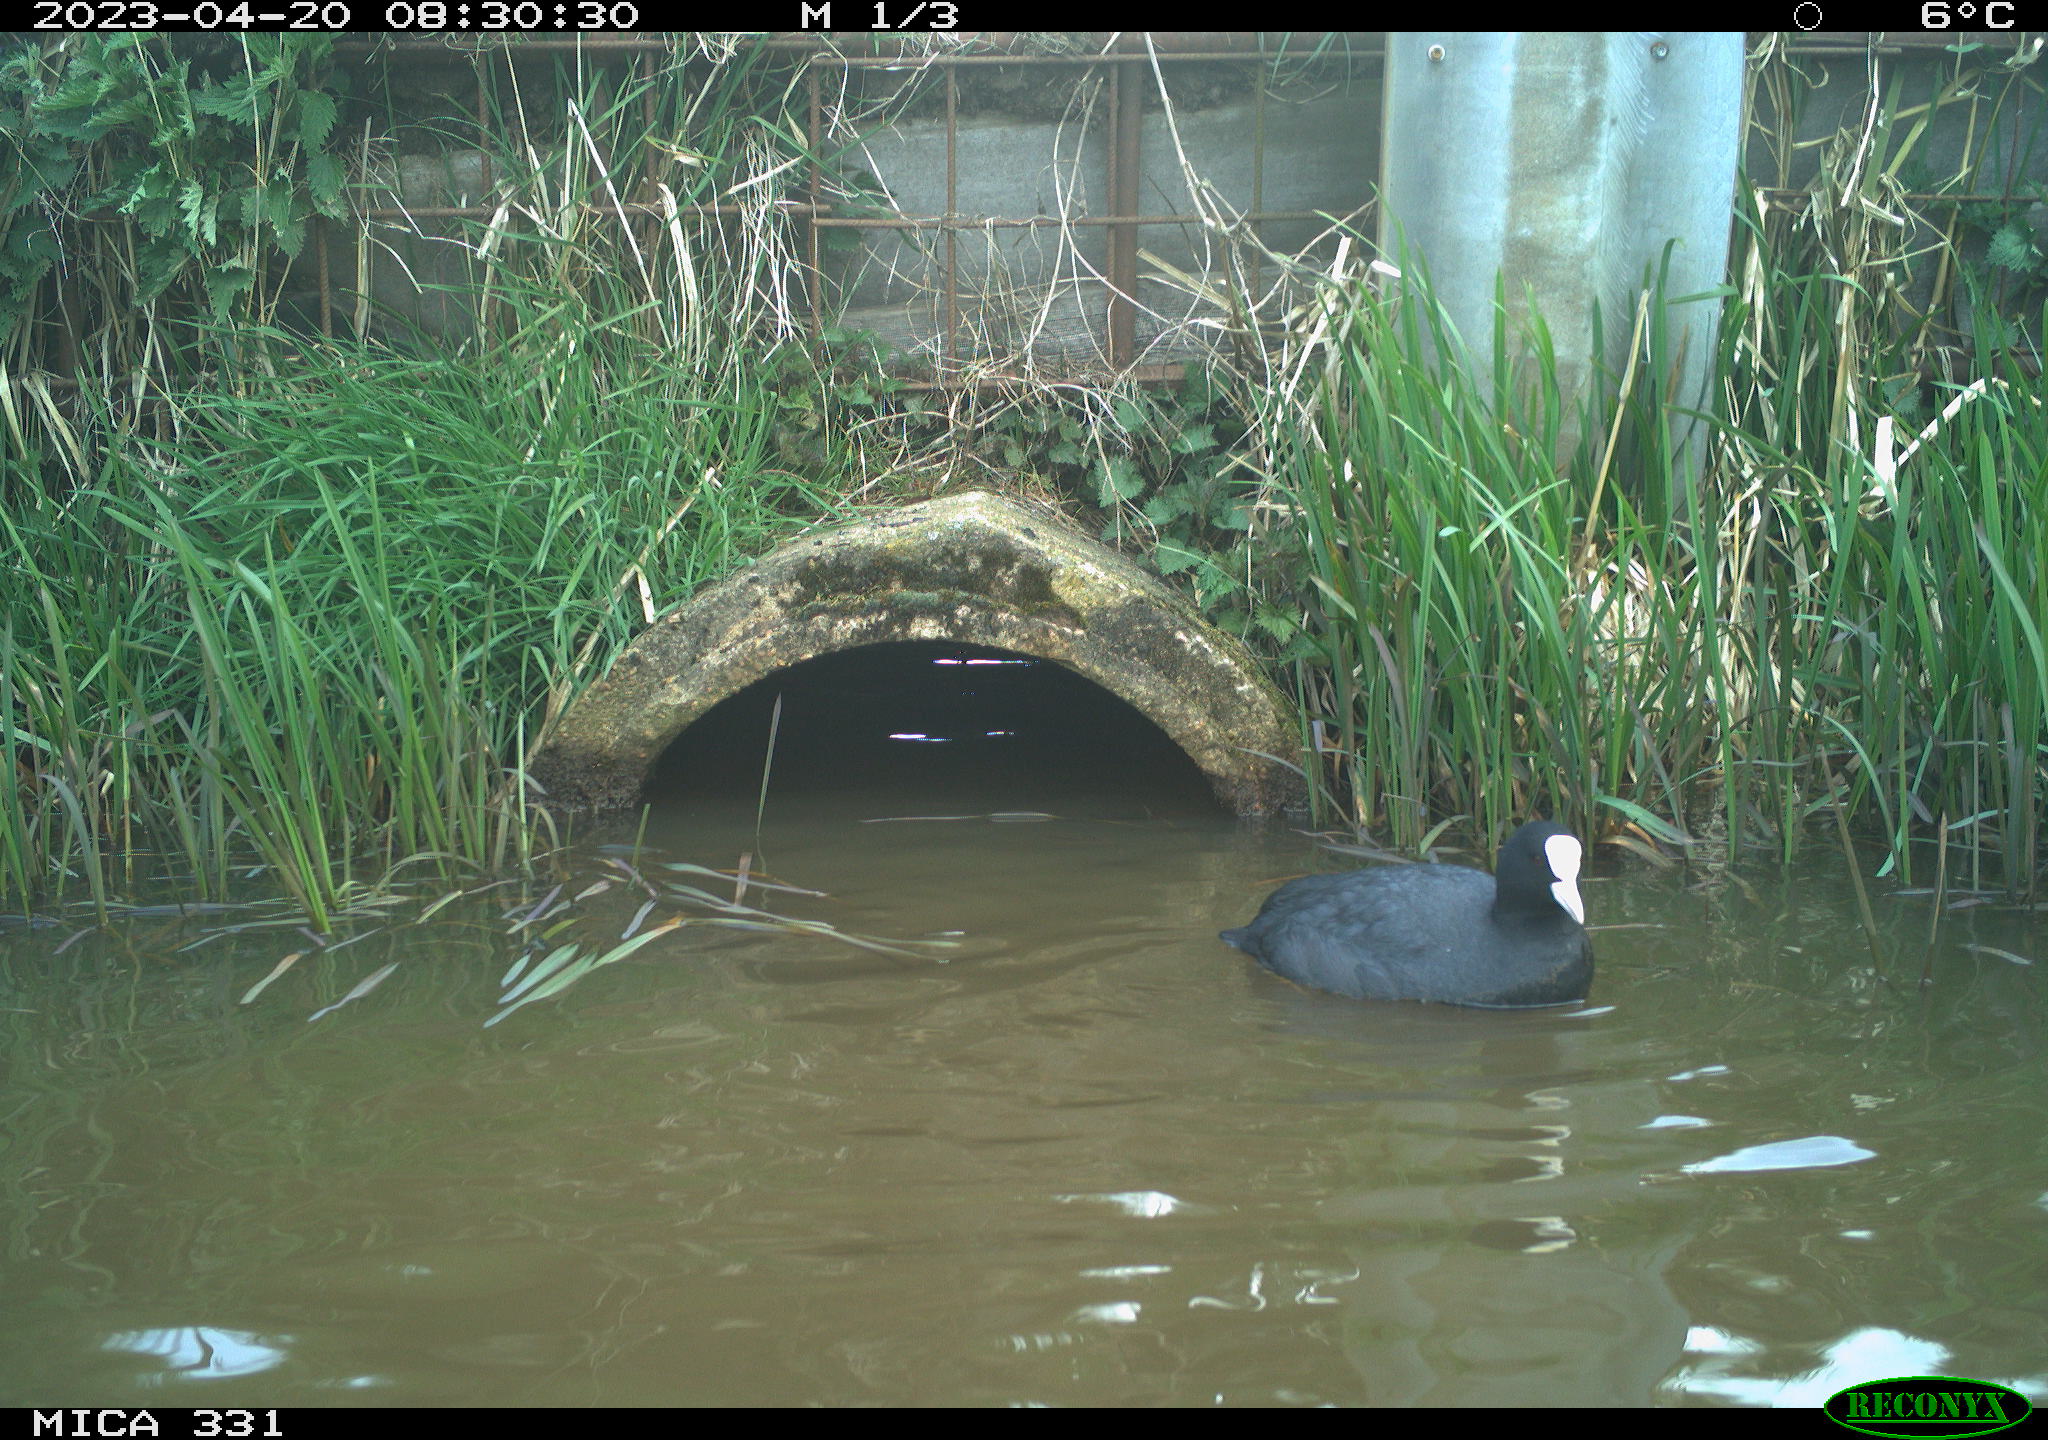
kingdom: Animalia
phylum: Chordata
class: Aves
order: Gruiformes
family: Rallidae
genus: Fulica
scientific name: Fulica atra
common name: Eurasian coot
